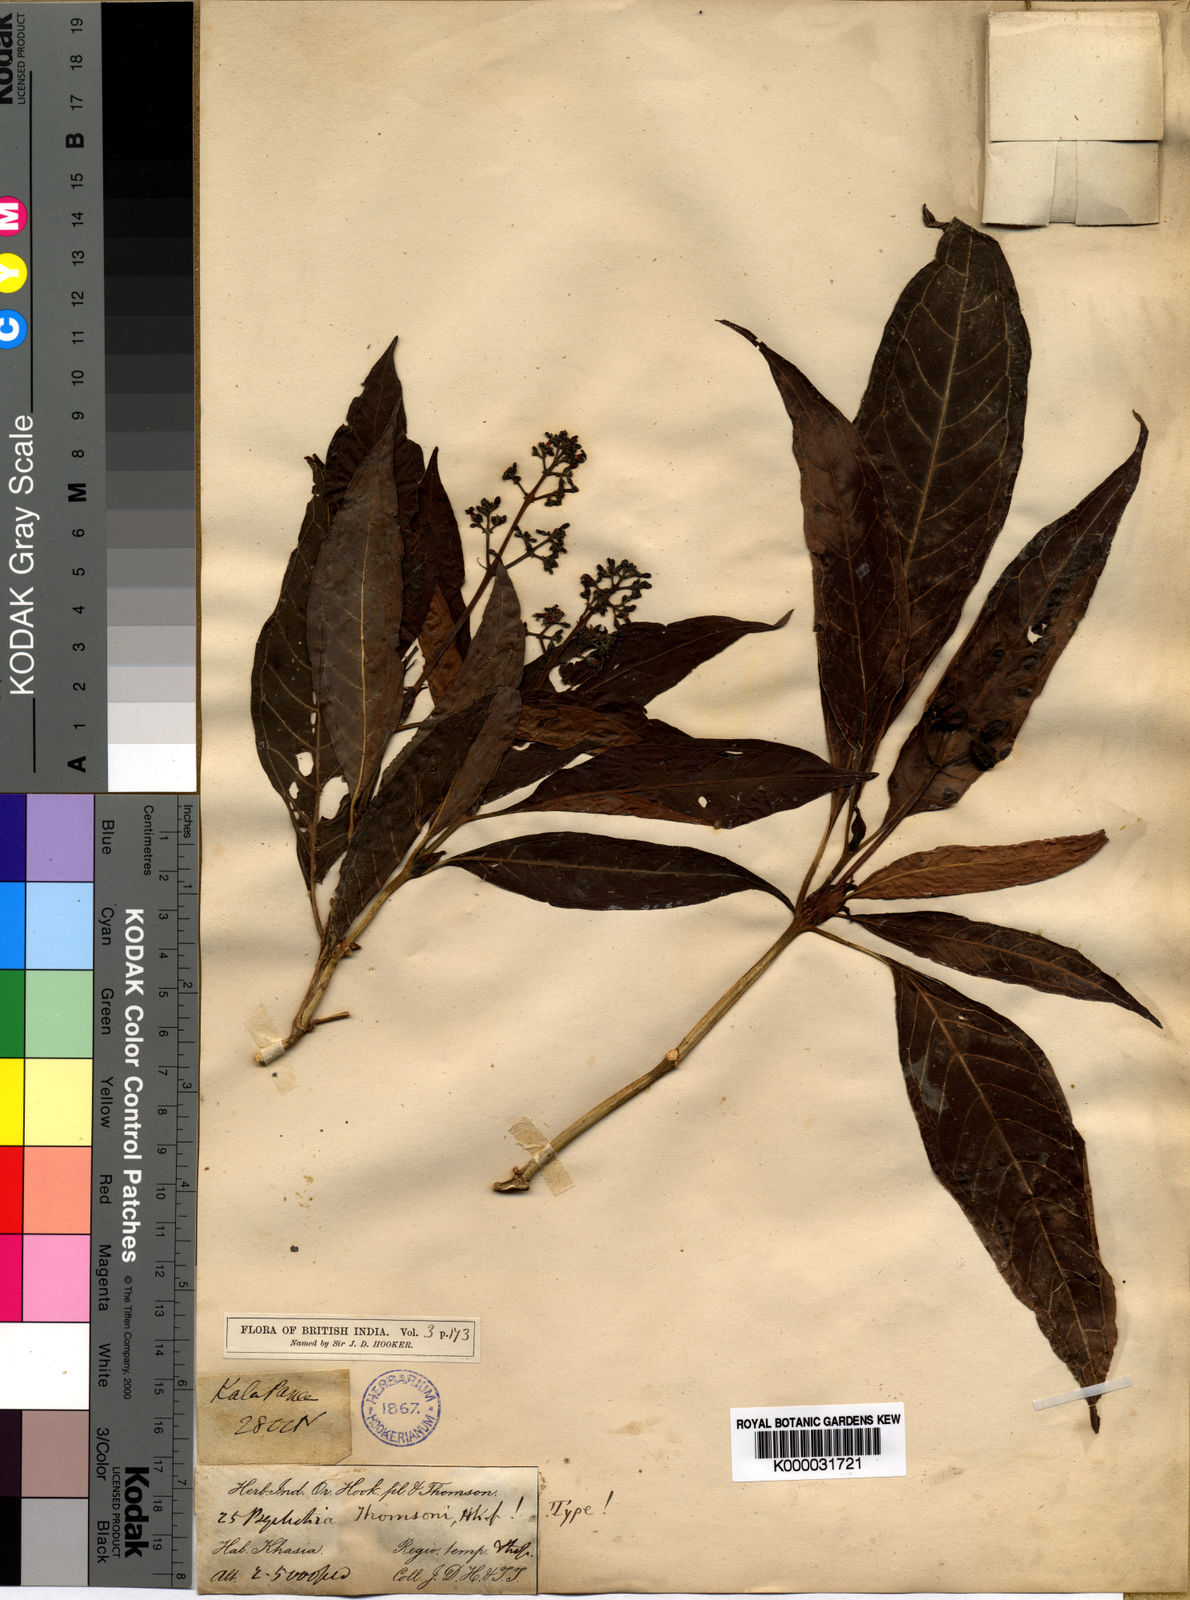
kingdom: Plantae
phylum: Tracheophyta
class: Magnoliopsida
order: Gentianales
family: Rubiaceae
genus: Psychotria
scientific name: Psychotria thomsonii
